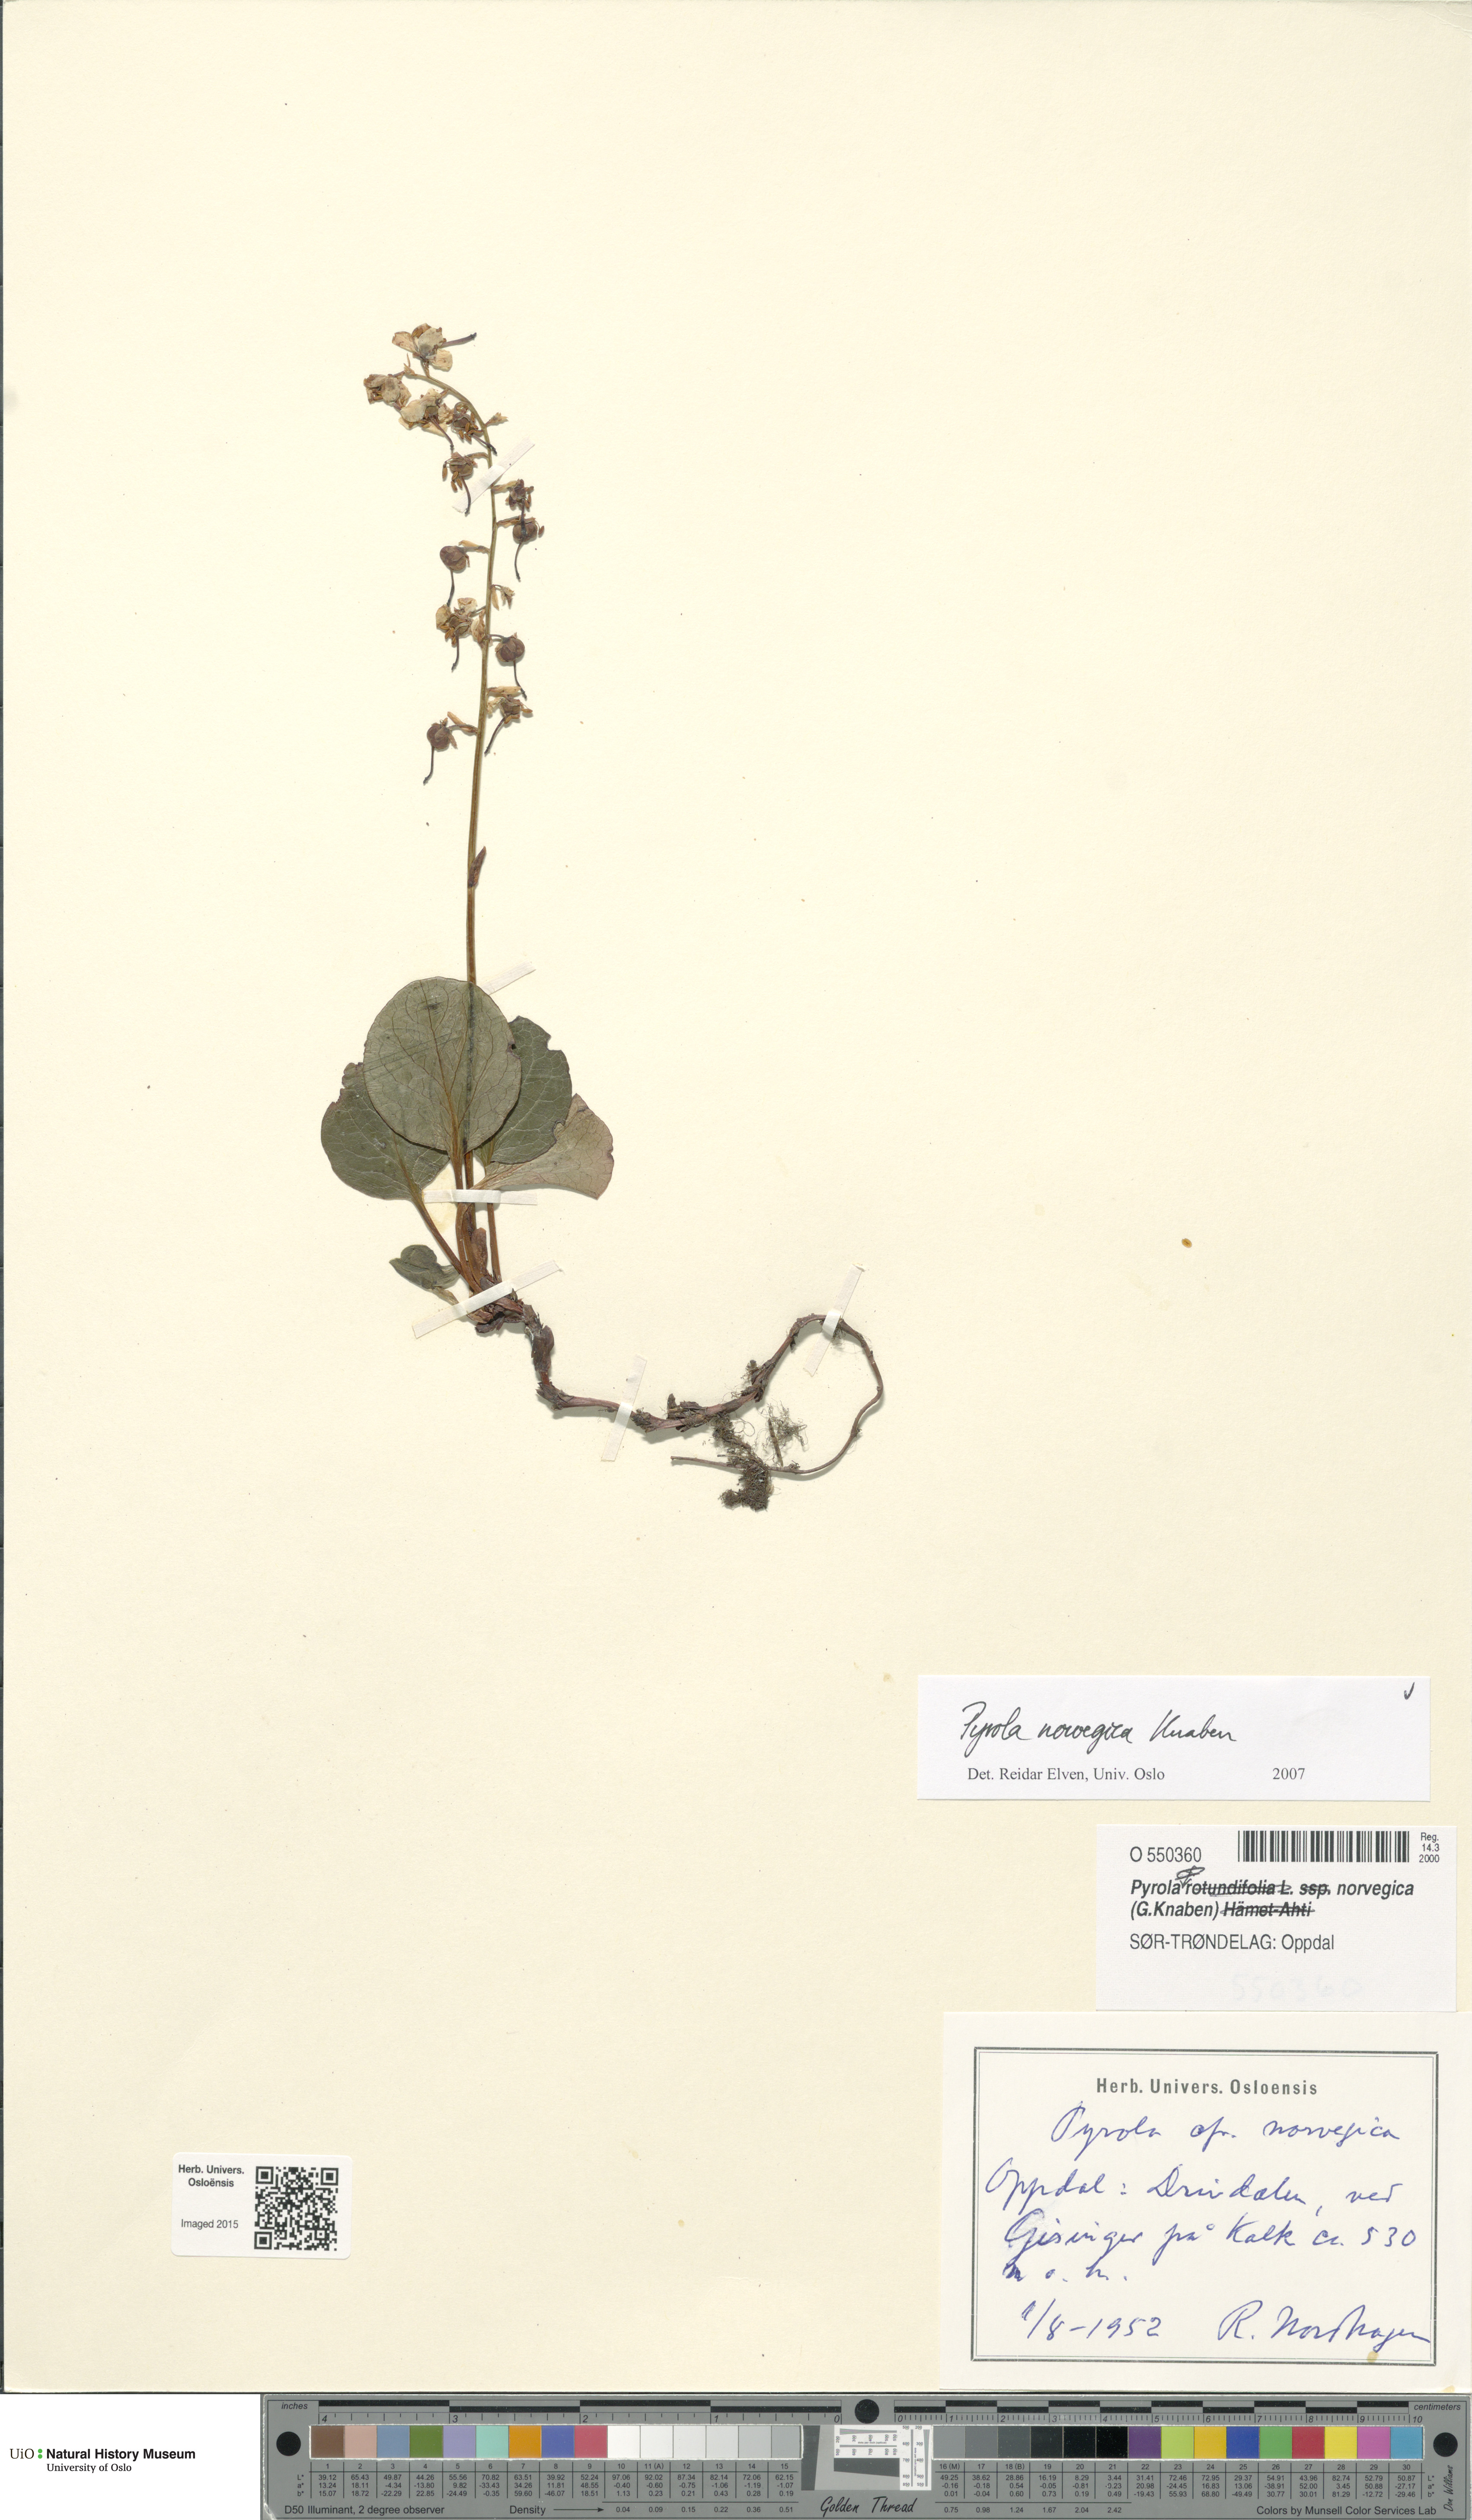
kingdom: Plantae
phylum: Tracheophyta
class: Magnoliopsida
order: Ericales
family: Ericaceae
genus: Pyrola
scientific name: Pyrola rotundifolia
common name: Round-leaved wintergreen
